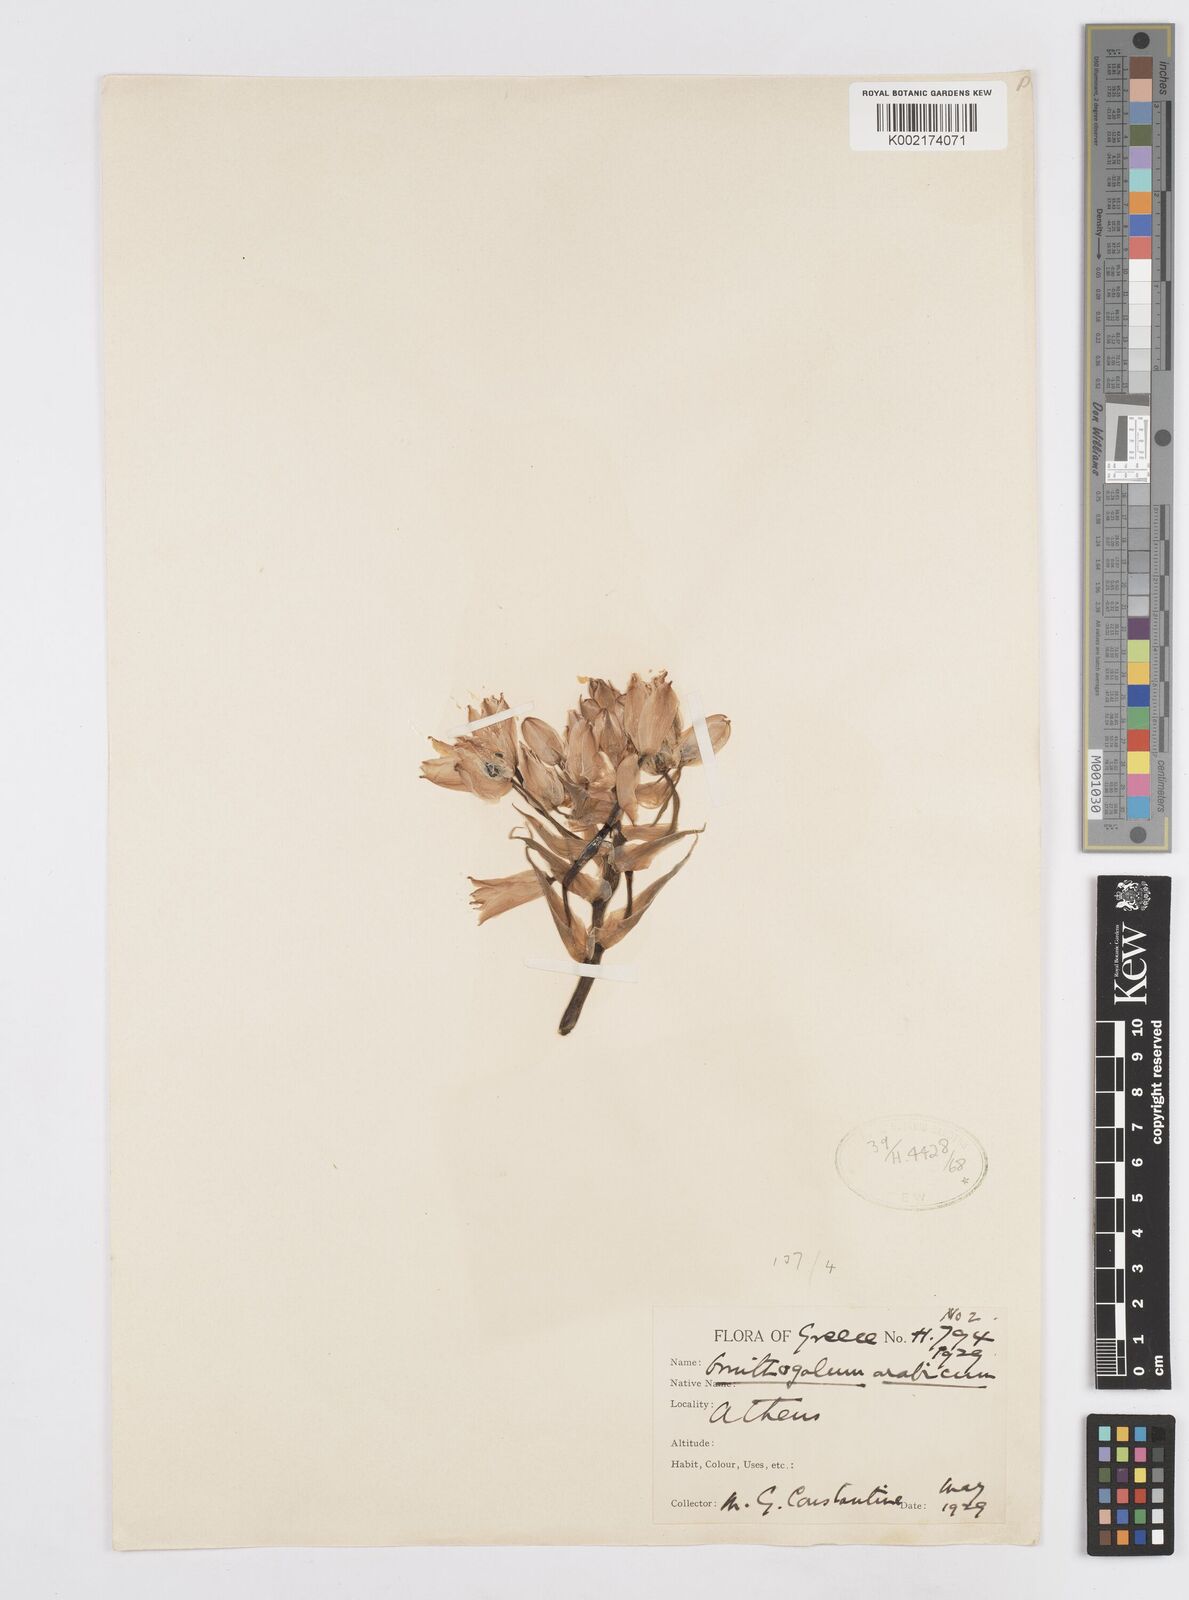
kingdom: Plantae
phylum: Tracheophyta
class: Liliopsida
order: Asparagales
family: Asparagaceae
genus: Ornithogalum
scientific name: Ornithogalum arabicum
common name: Arabian starflower
